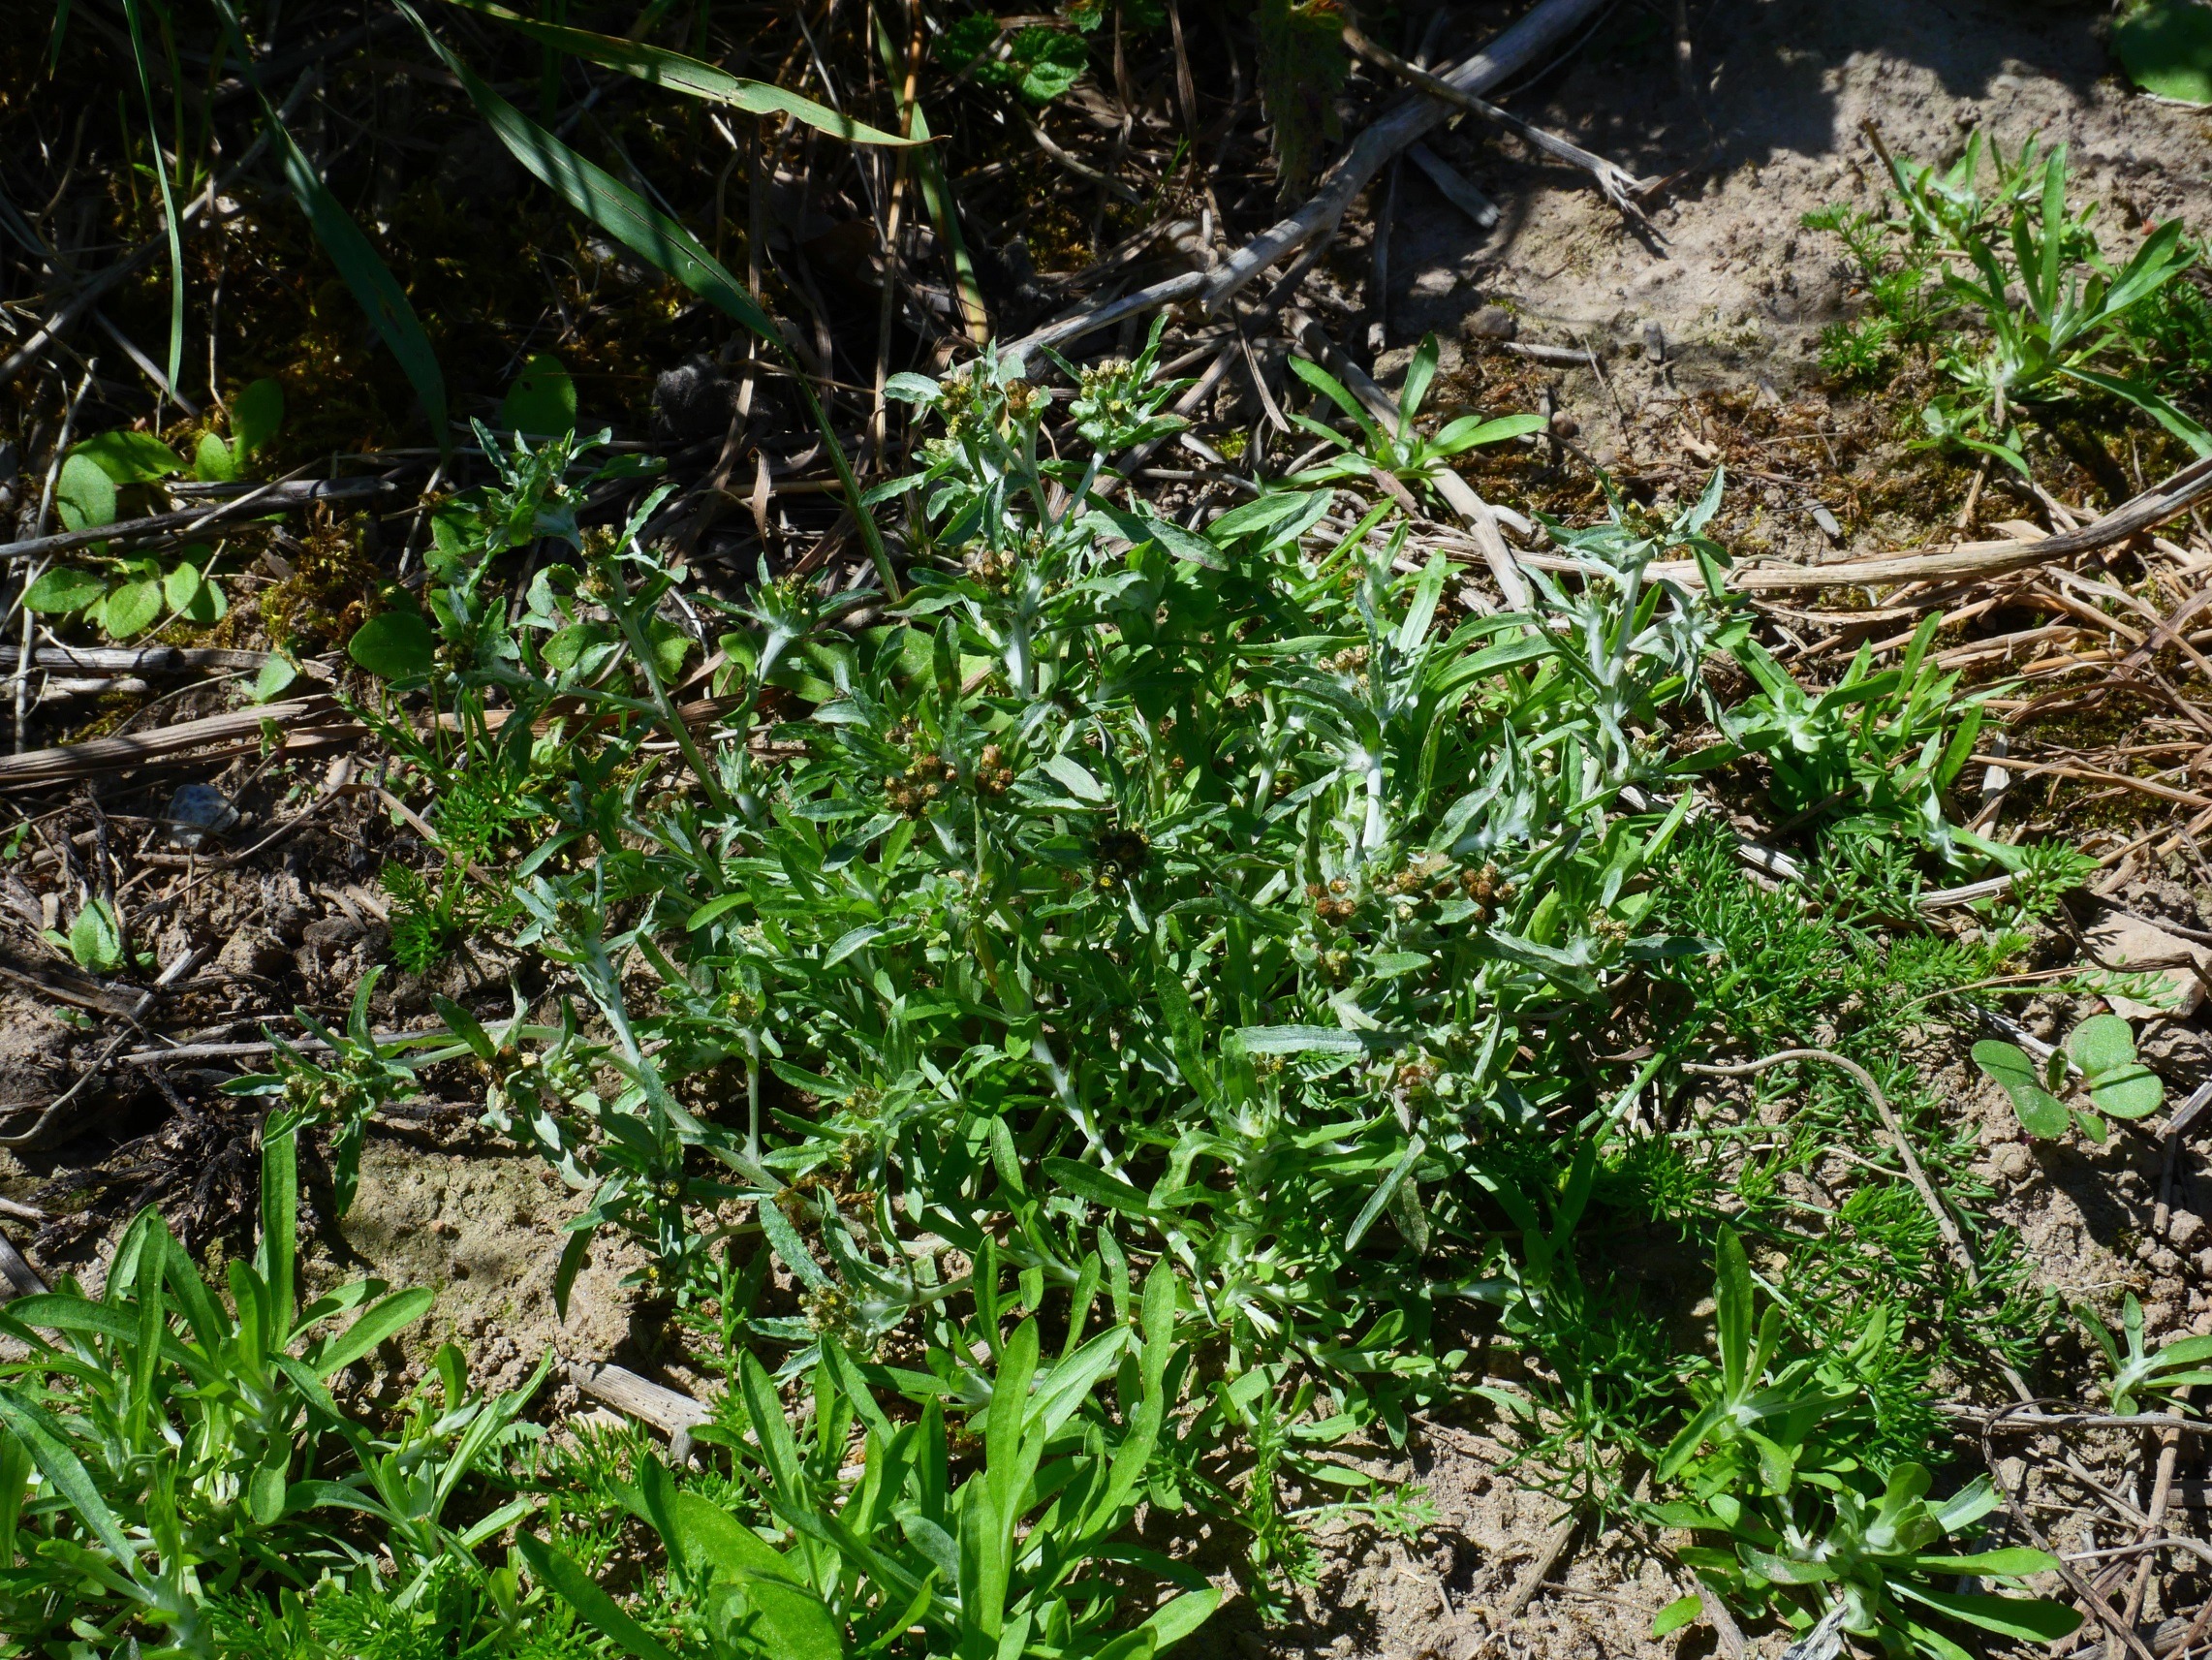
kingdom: Plantae
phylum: Tracheophyta
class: Magnoliopsida
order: Asterales
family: Asteraceae
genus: Gnaphalium
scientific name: Gnaphalium uliginosum
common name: Sump-evighedsblomst
